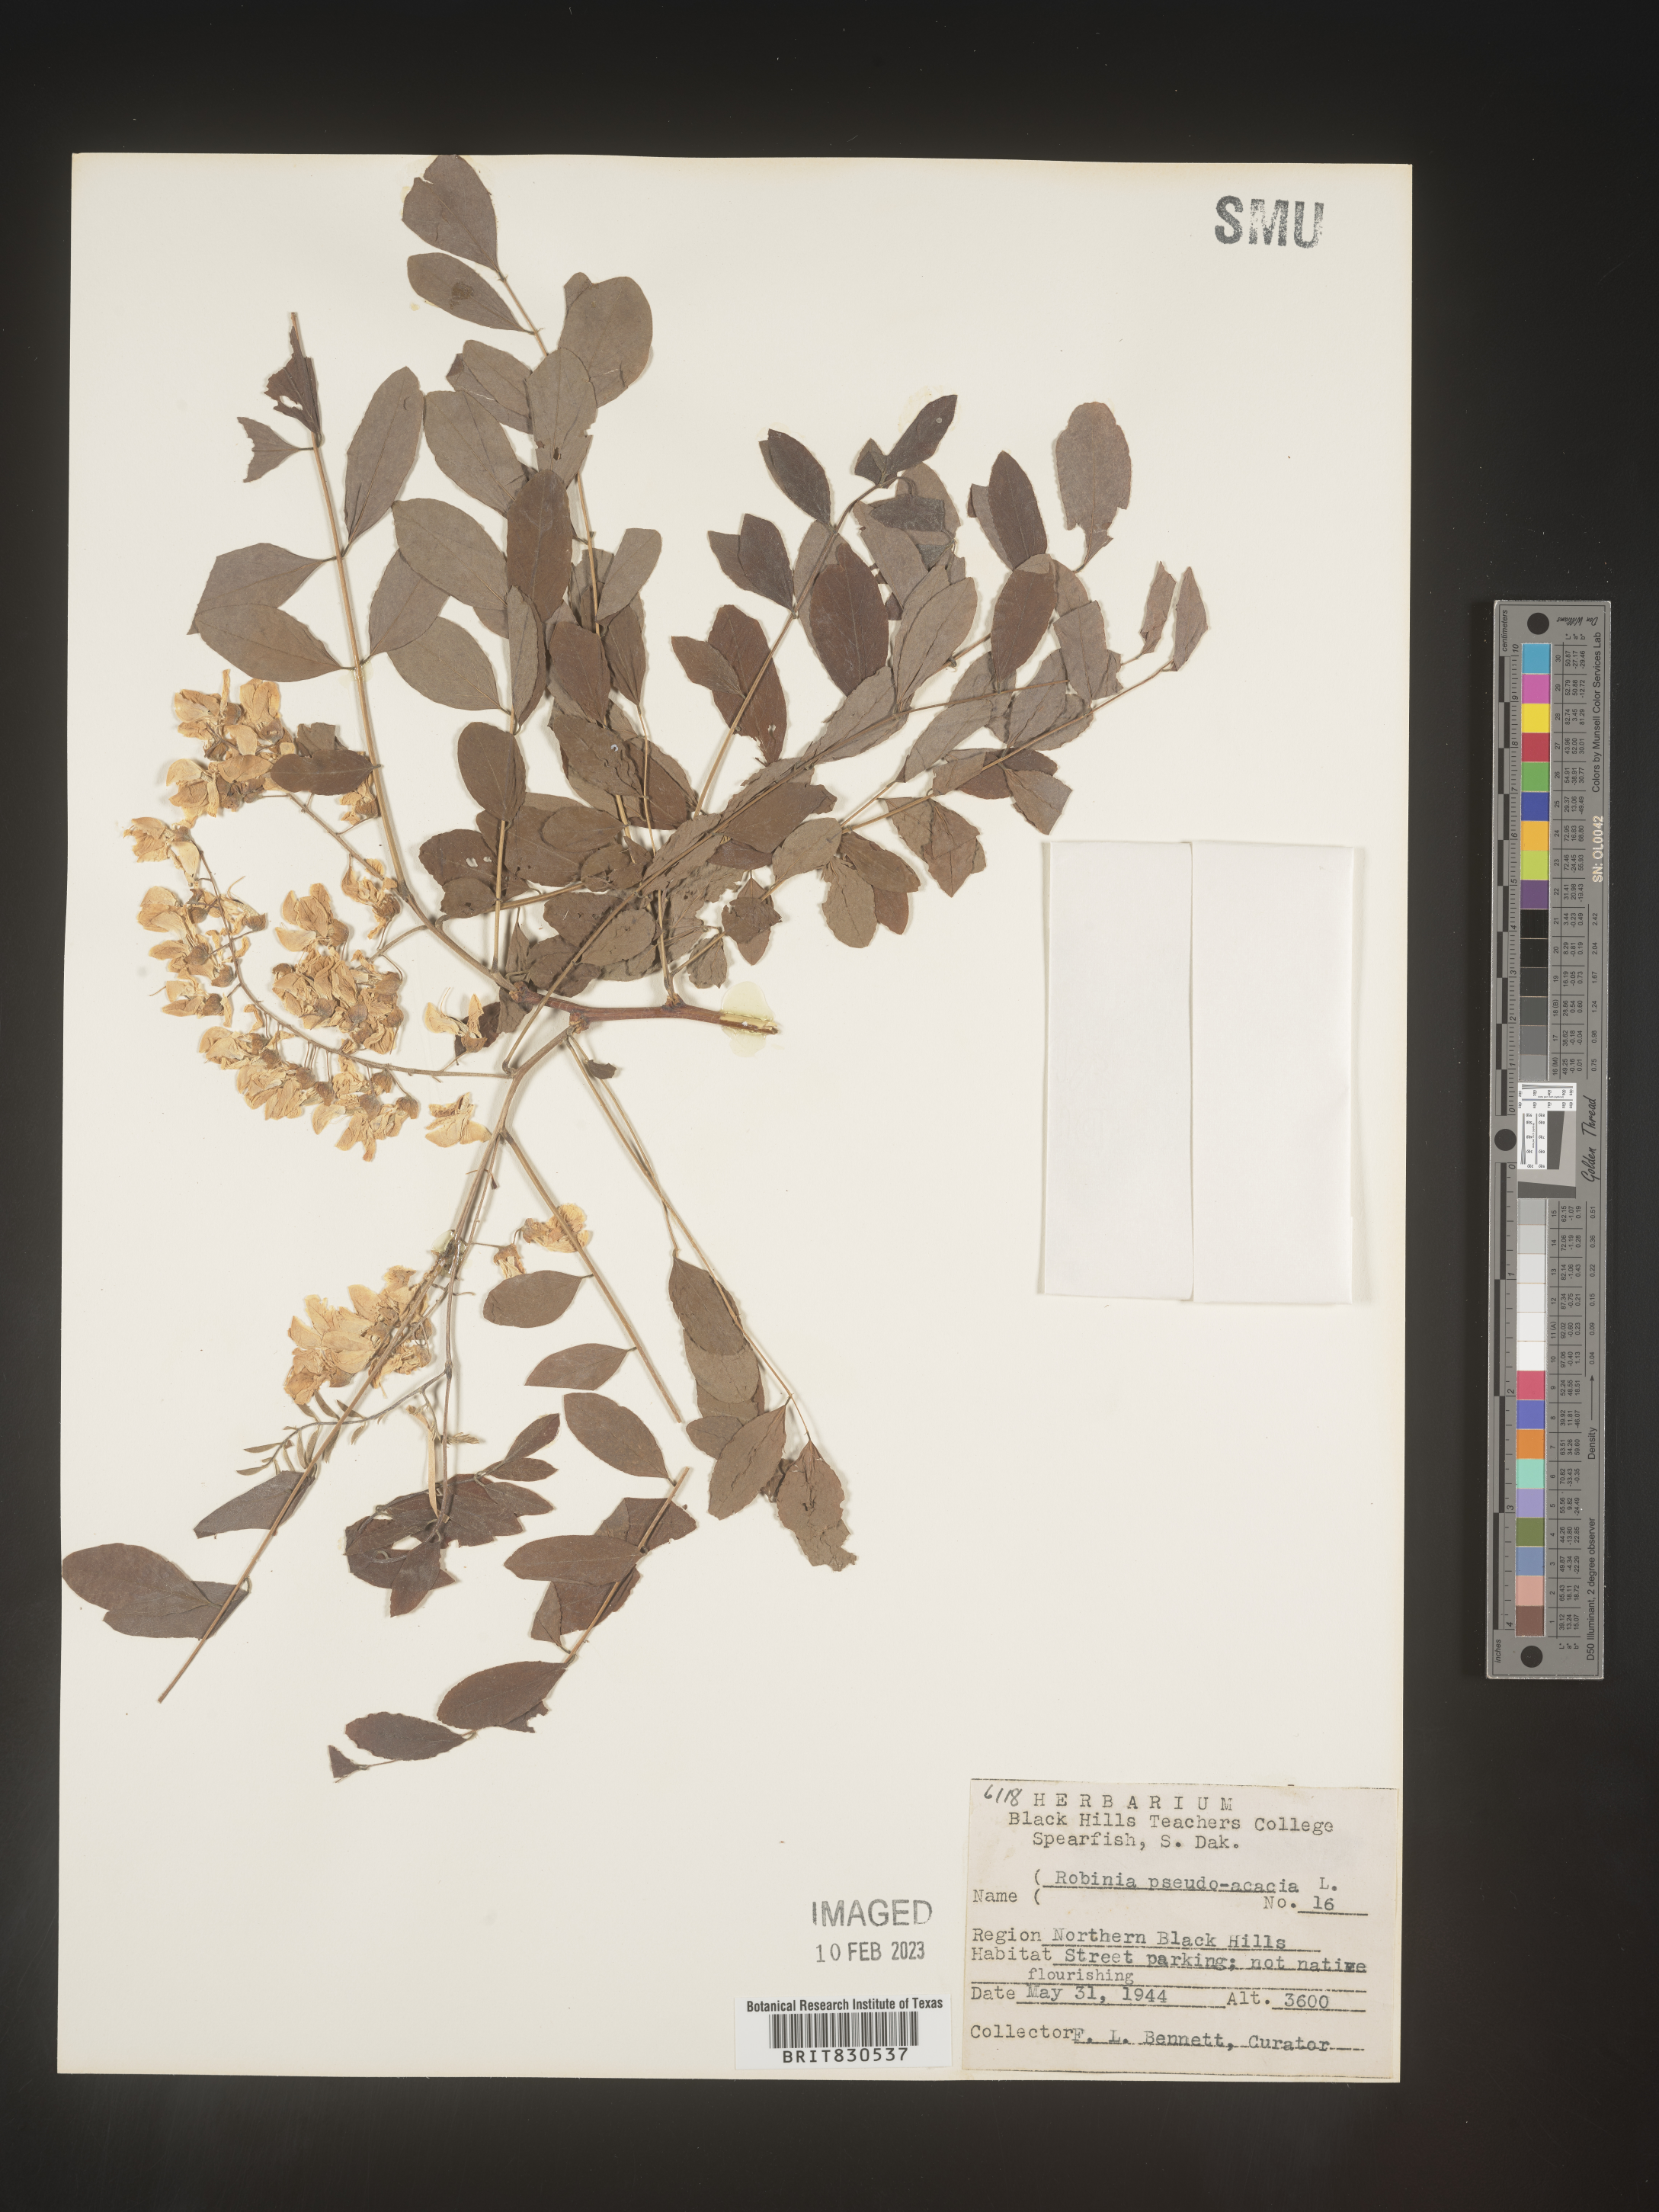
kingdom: Plantae
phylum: Tracheophyta
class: Magnoliopsida
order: Fabales
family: Fabaceae
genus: Robinia
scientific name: Robinia pseudoacacia
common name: Black locust
